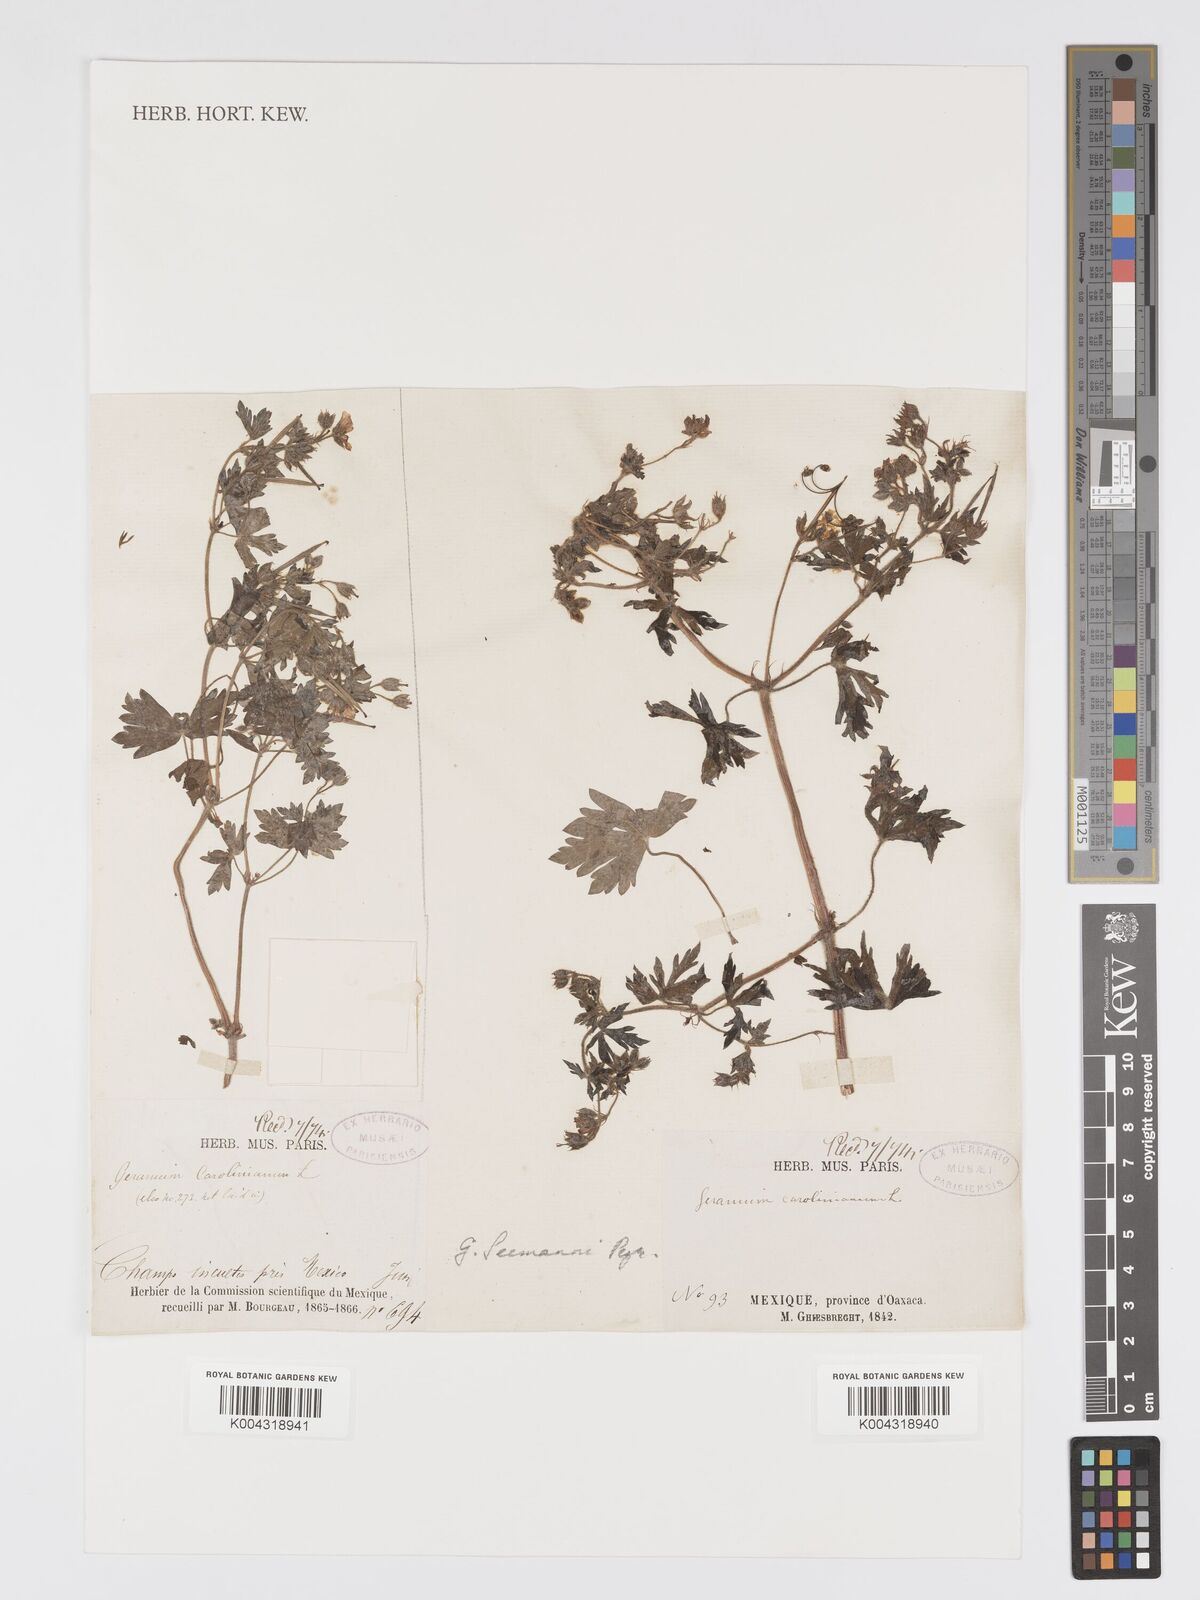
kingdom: Plantae
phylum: Tracheophyta
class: Magnoliopsida
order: Geraniales
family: Geraniaceae
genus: Geranium
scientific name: Geranium seemannii
